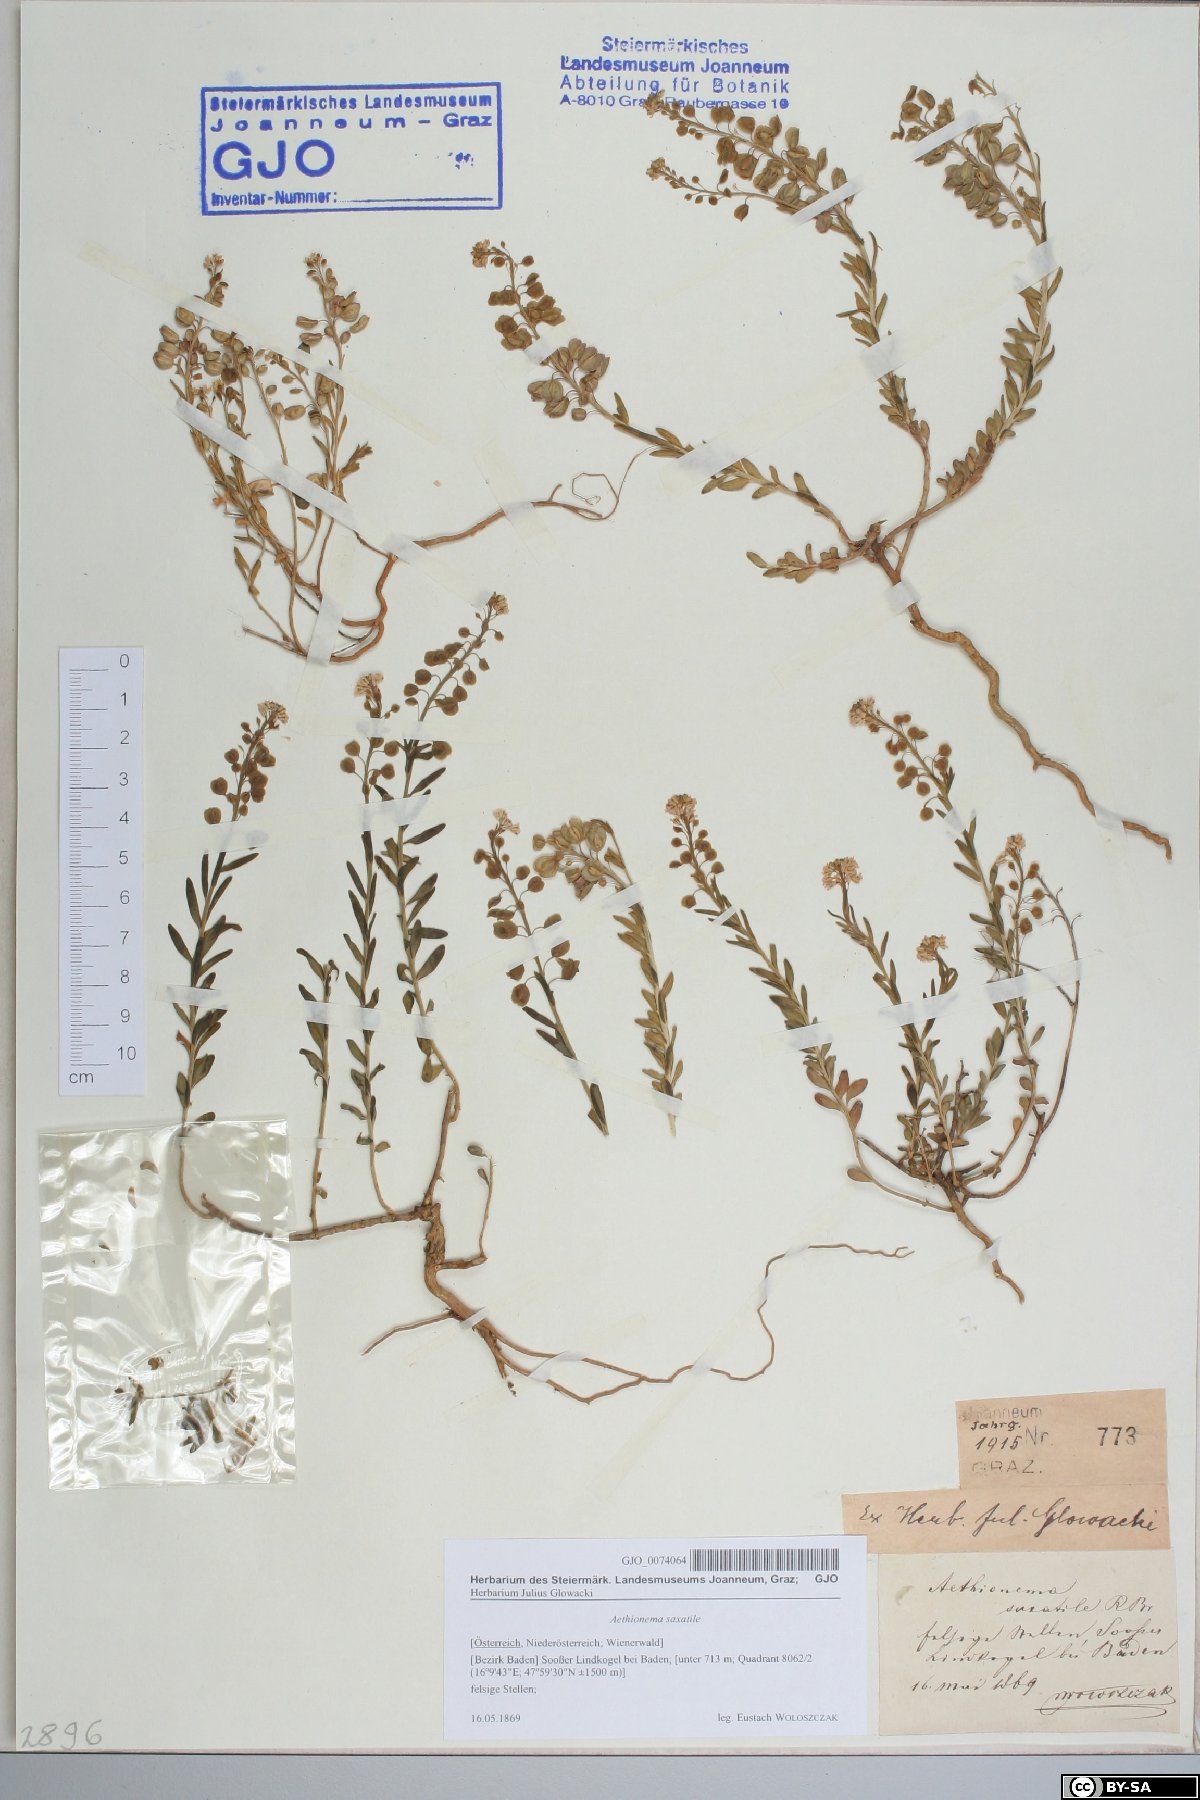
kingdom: Plantae
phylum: Tracheophyta
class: Magnoliopsida
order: Brassicales
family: Brassicaceae
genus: Aethionema
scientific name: Aethionema saxatile
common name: Burnt candytuft
